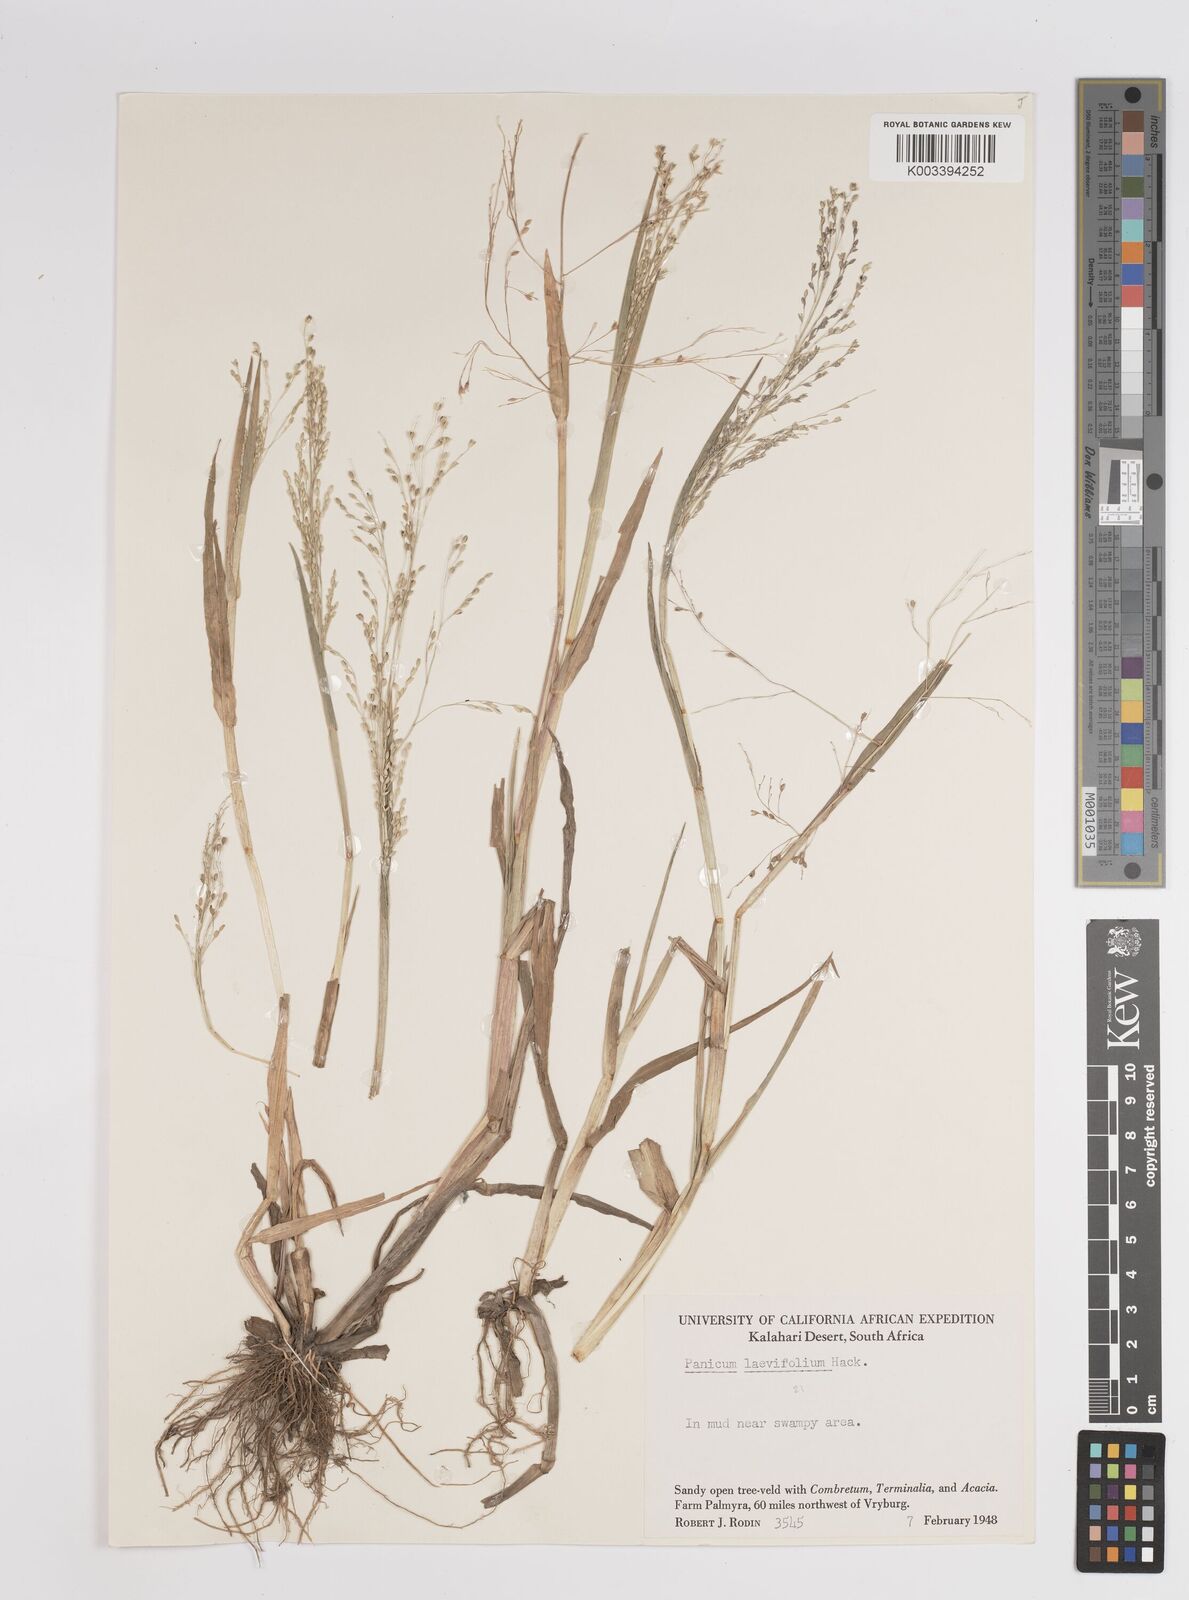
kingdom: Plantae
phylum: Tracheophyta
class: Liliopsida
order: Poales
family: Poaceae
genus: Panicum
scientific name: Panicum schinzii
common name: Sweet grass
